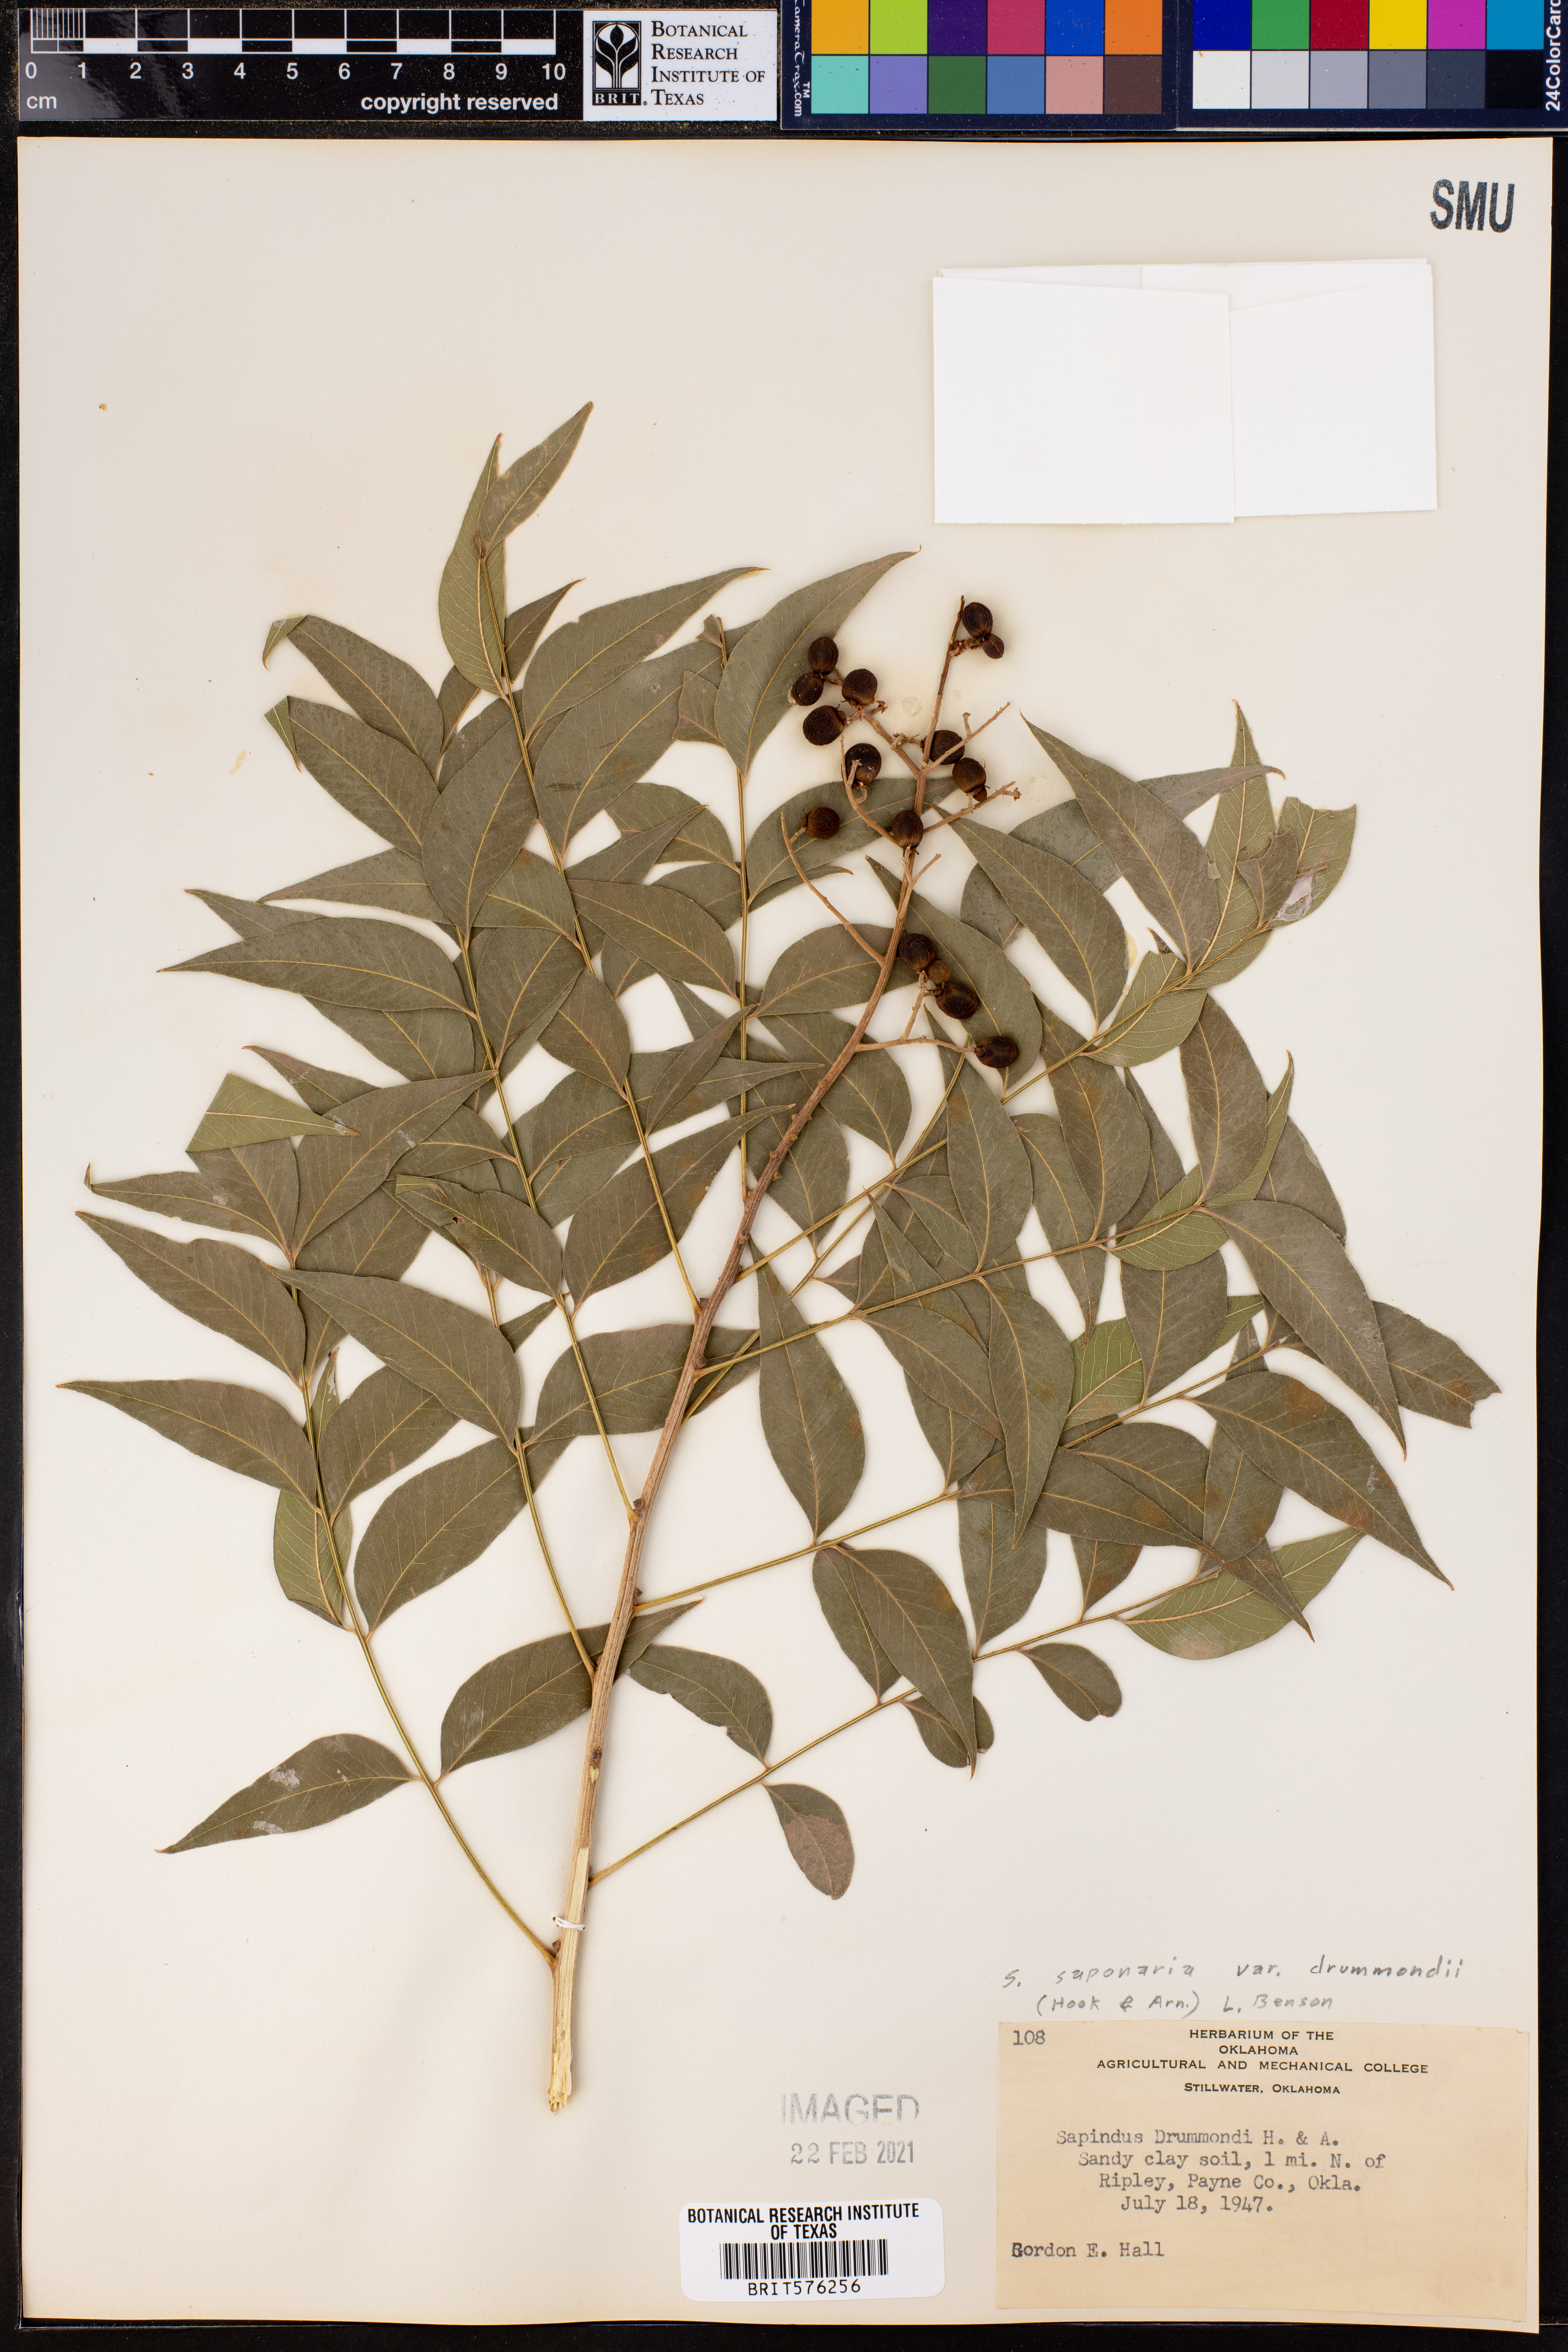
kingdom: Plantae
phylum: Tracheophyta
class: Magnoliopsida
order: Sapindales
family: Sapindaceae
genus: Sapindus
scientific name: Sapindus drummondii
